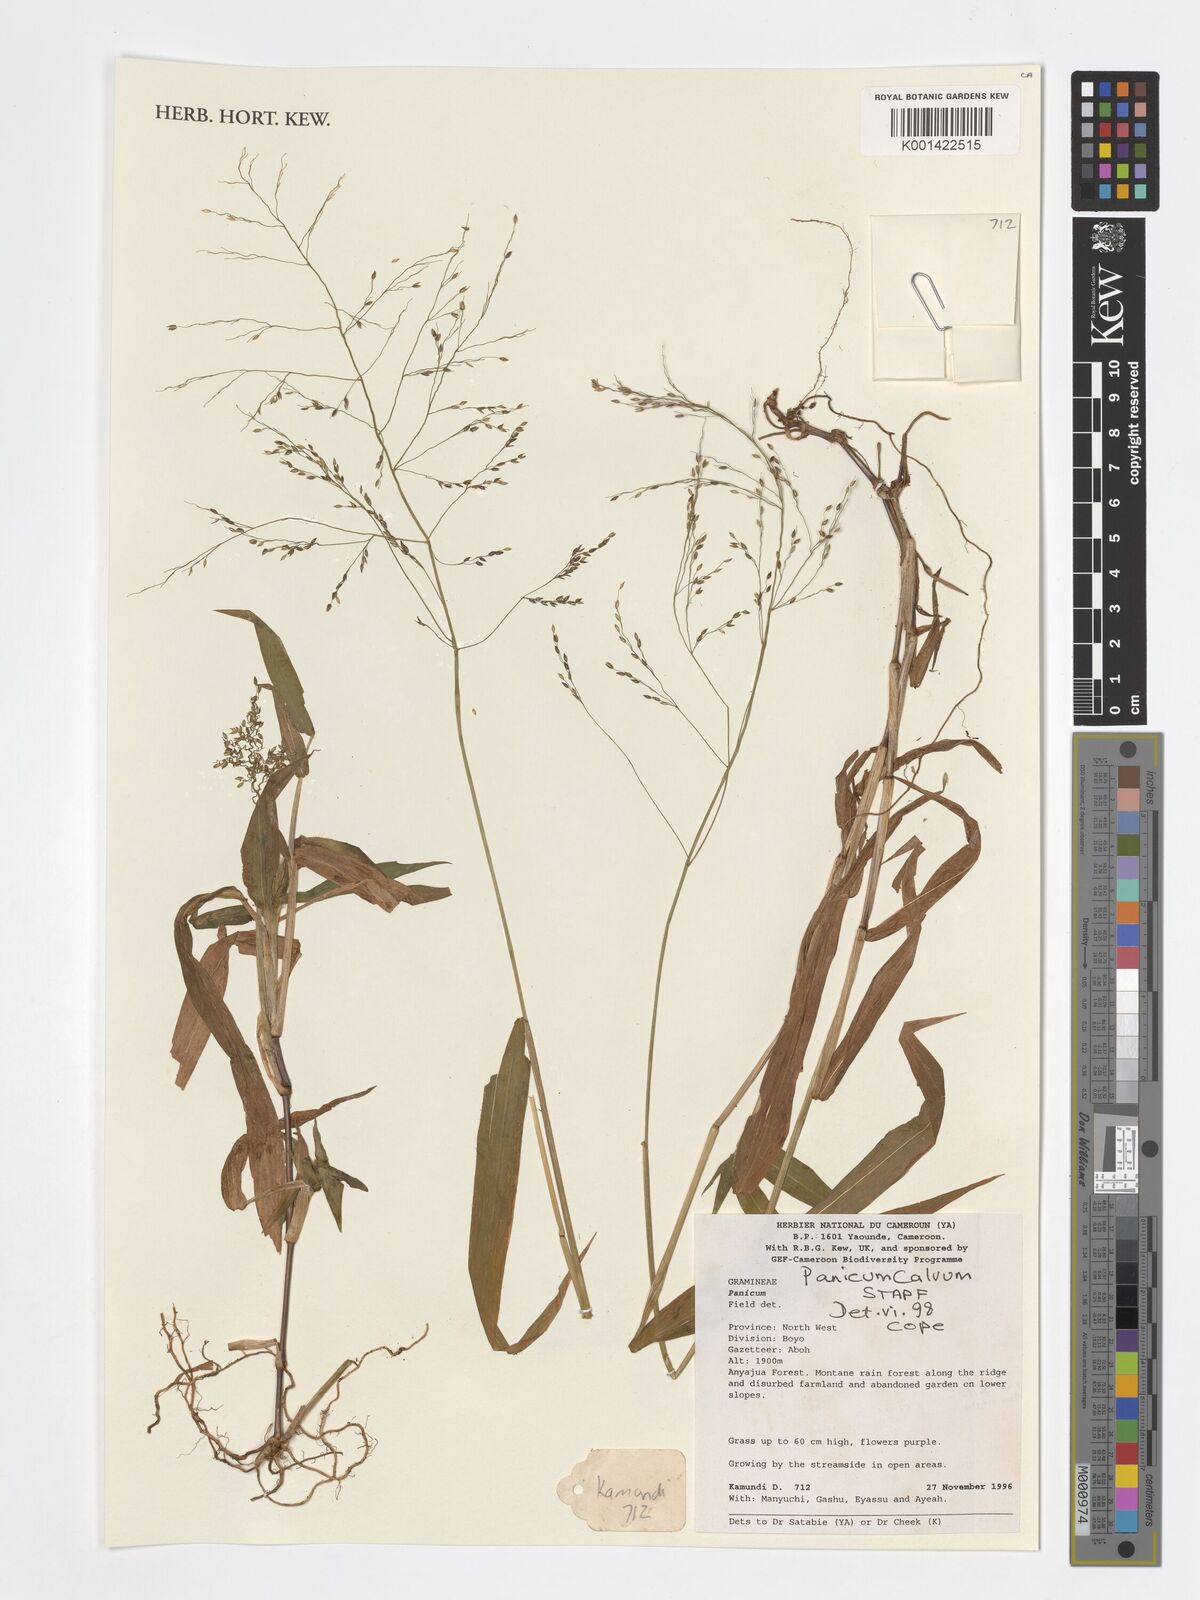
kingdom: Plantae
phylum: Tracheophyta
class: Liliopsida
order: Poales
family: Poaceae
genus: Panicum
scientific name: Panicum calvum
